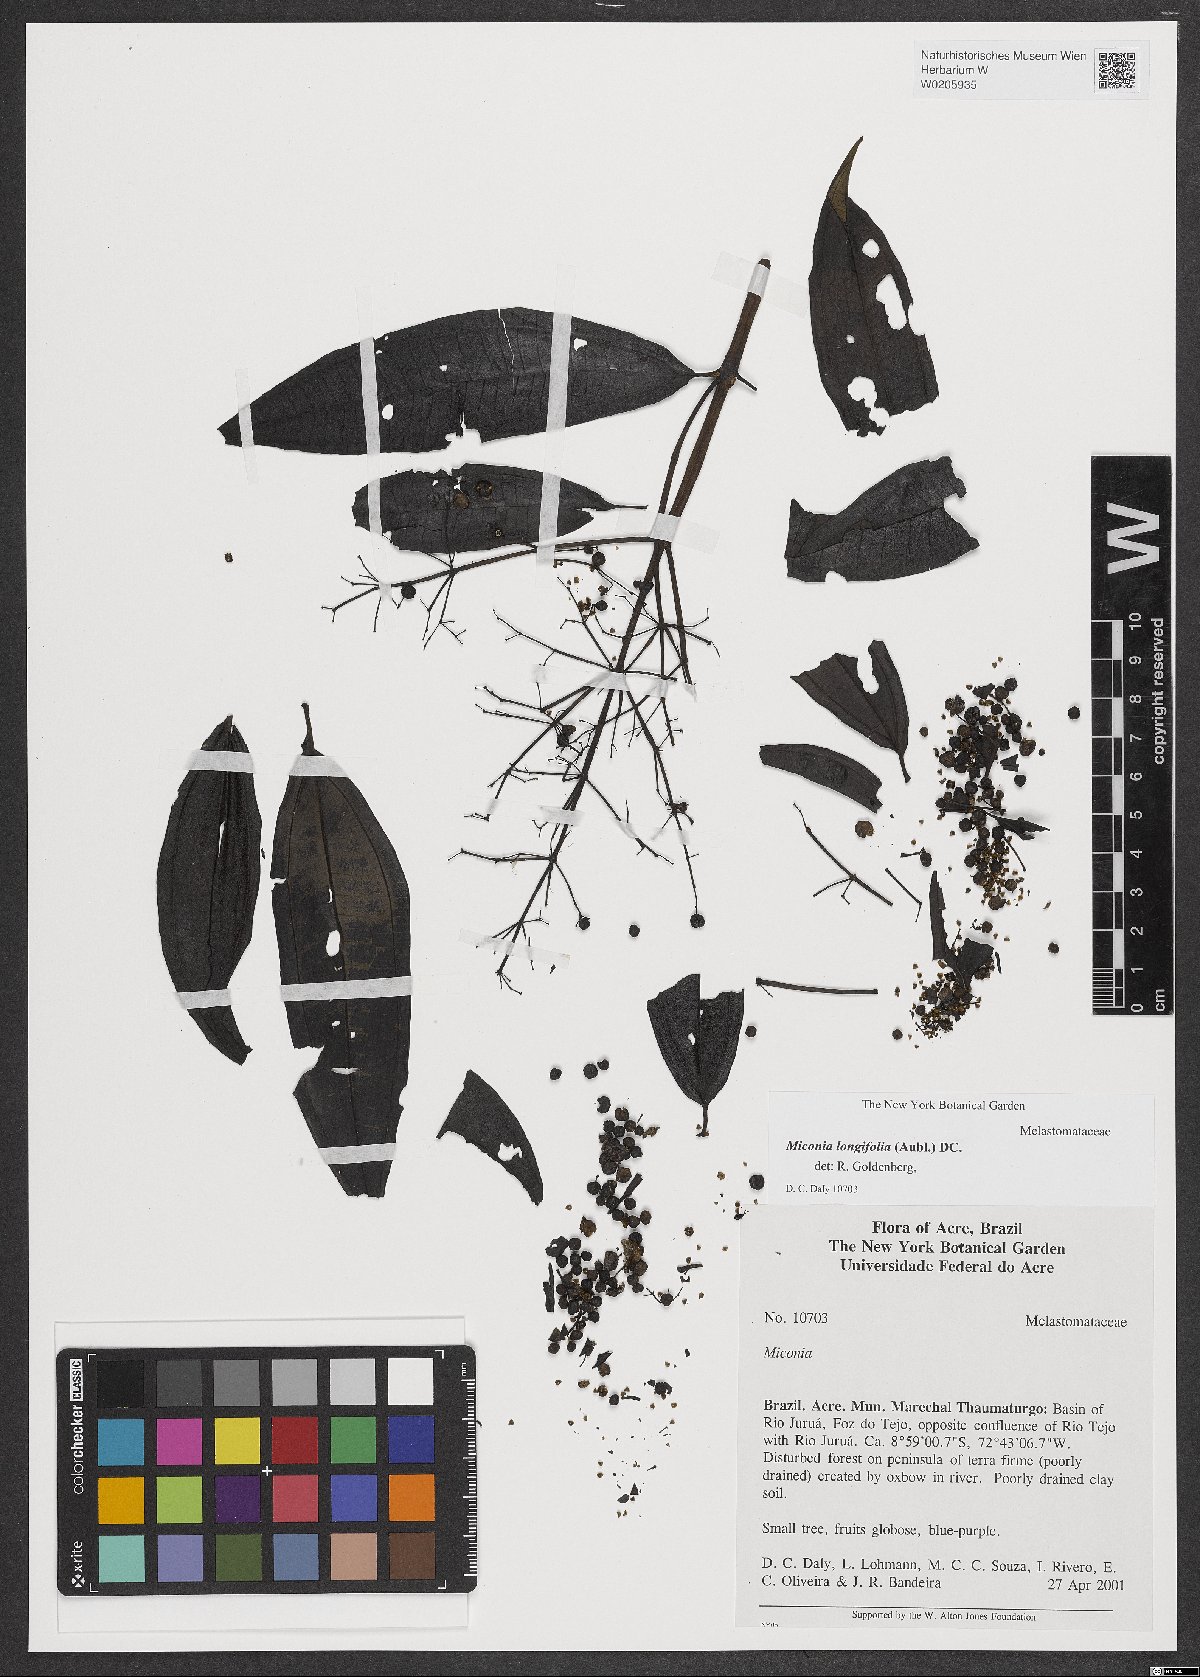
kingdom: Plantae
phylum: Tracheophyta
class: Magnoliopsida
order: Myrtales
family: Melastomataceae
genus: Miconia
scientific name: Miconia longifolia
